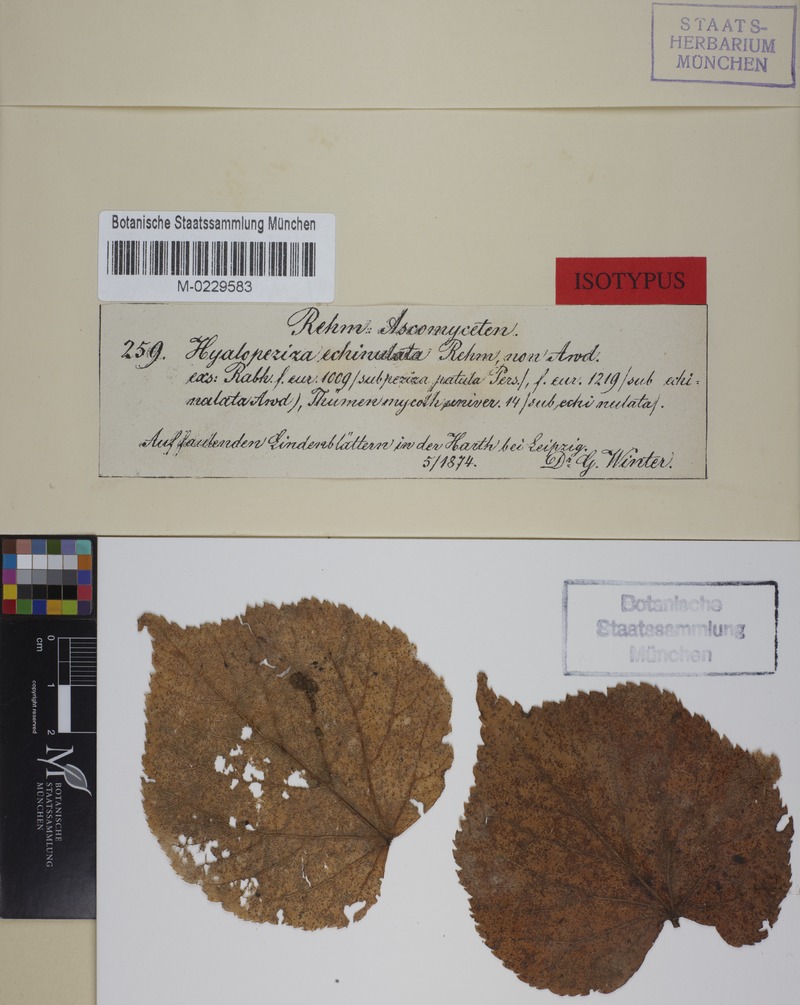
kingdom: Fungi
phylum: Ascomycota
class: Leotiomycetes
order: Helotiales
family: Lachnaceae
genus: Lachnum
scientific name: Lachnum echinulatum
